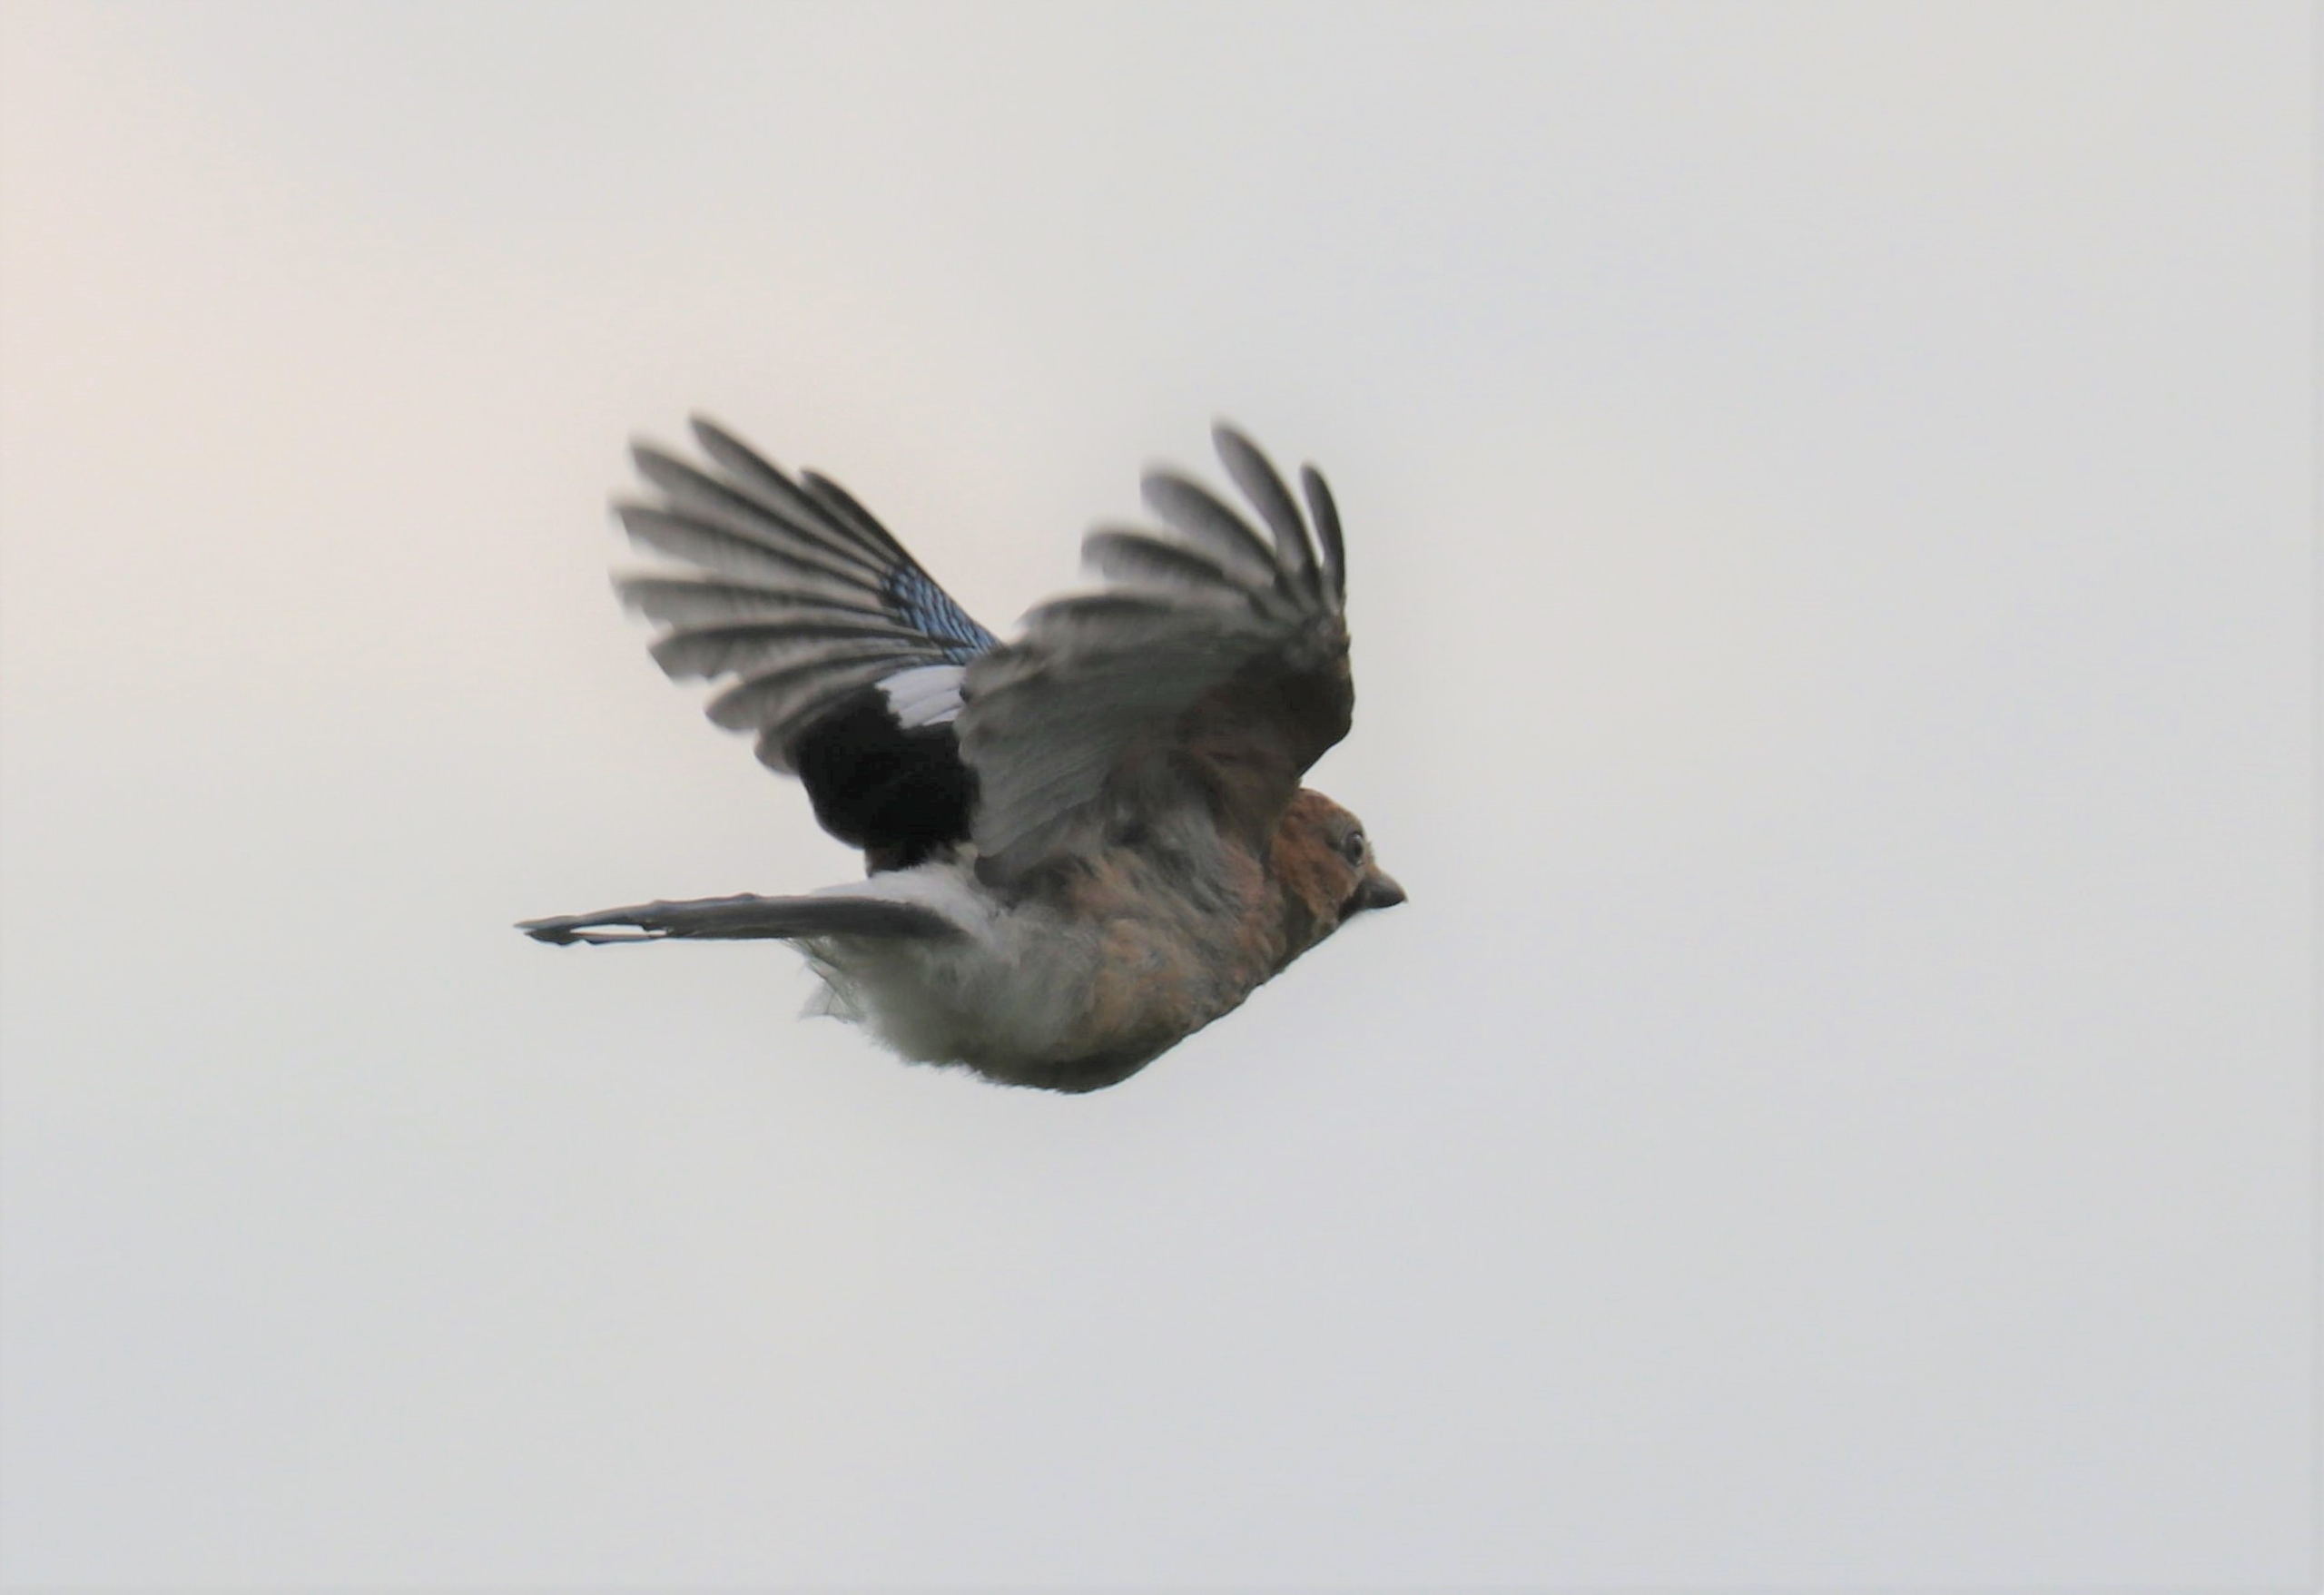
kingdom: Animalia
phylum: Chordata
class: Aves
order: Passeriformes
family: Corvidae
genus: Garrulus
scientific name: Garrulus glandarius
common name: Skovskade
